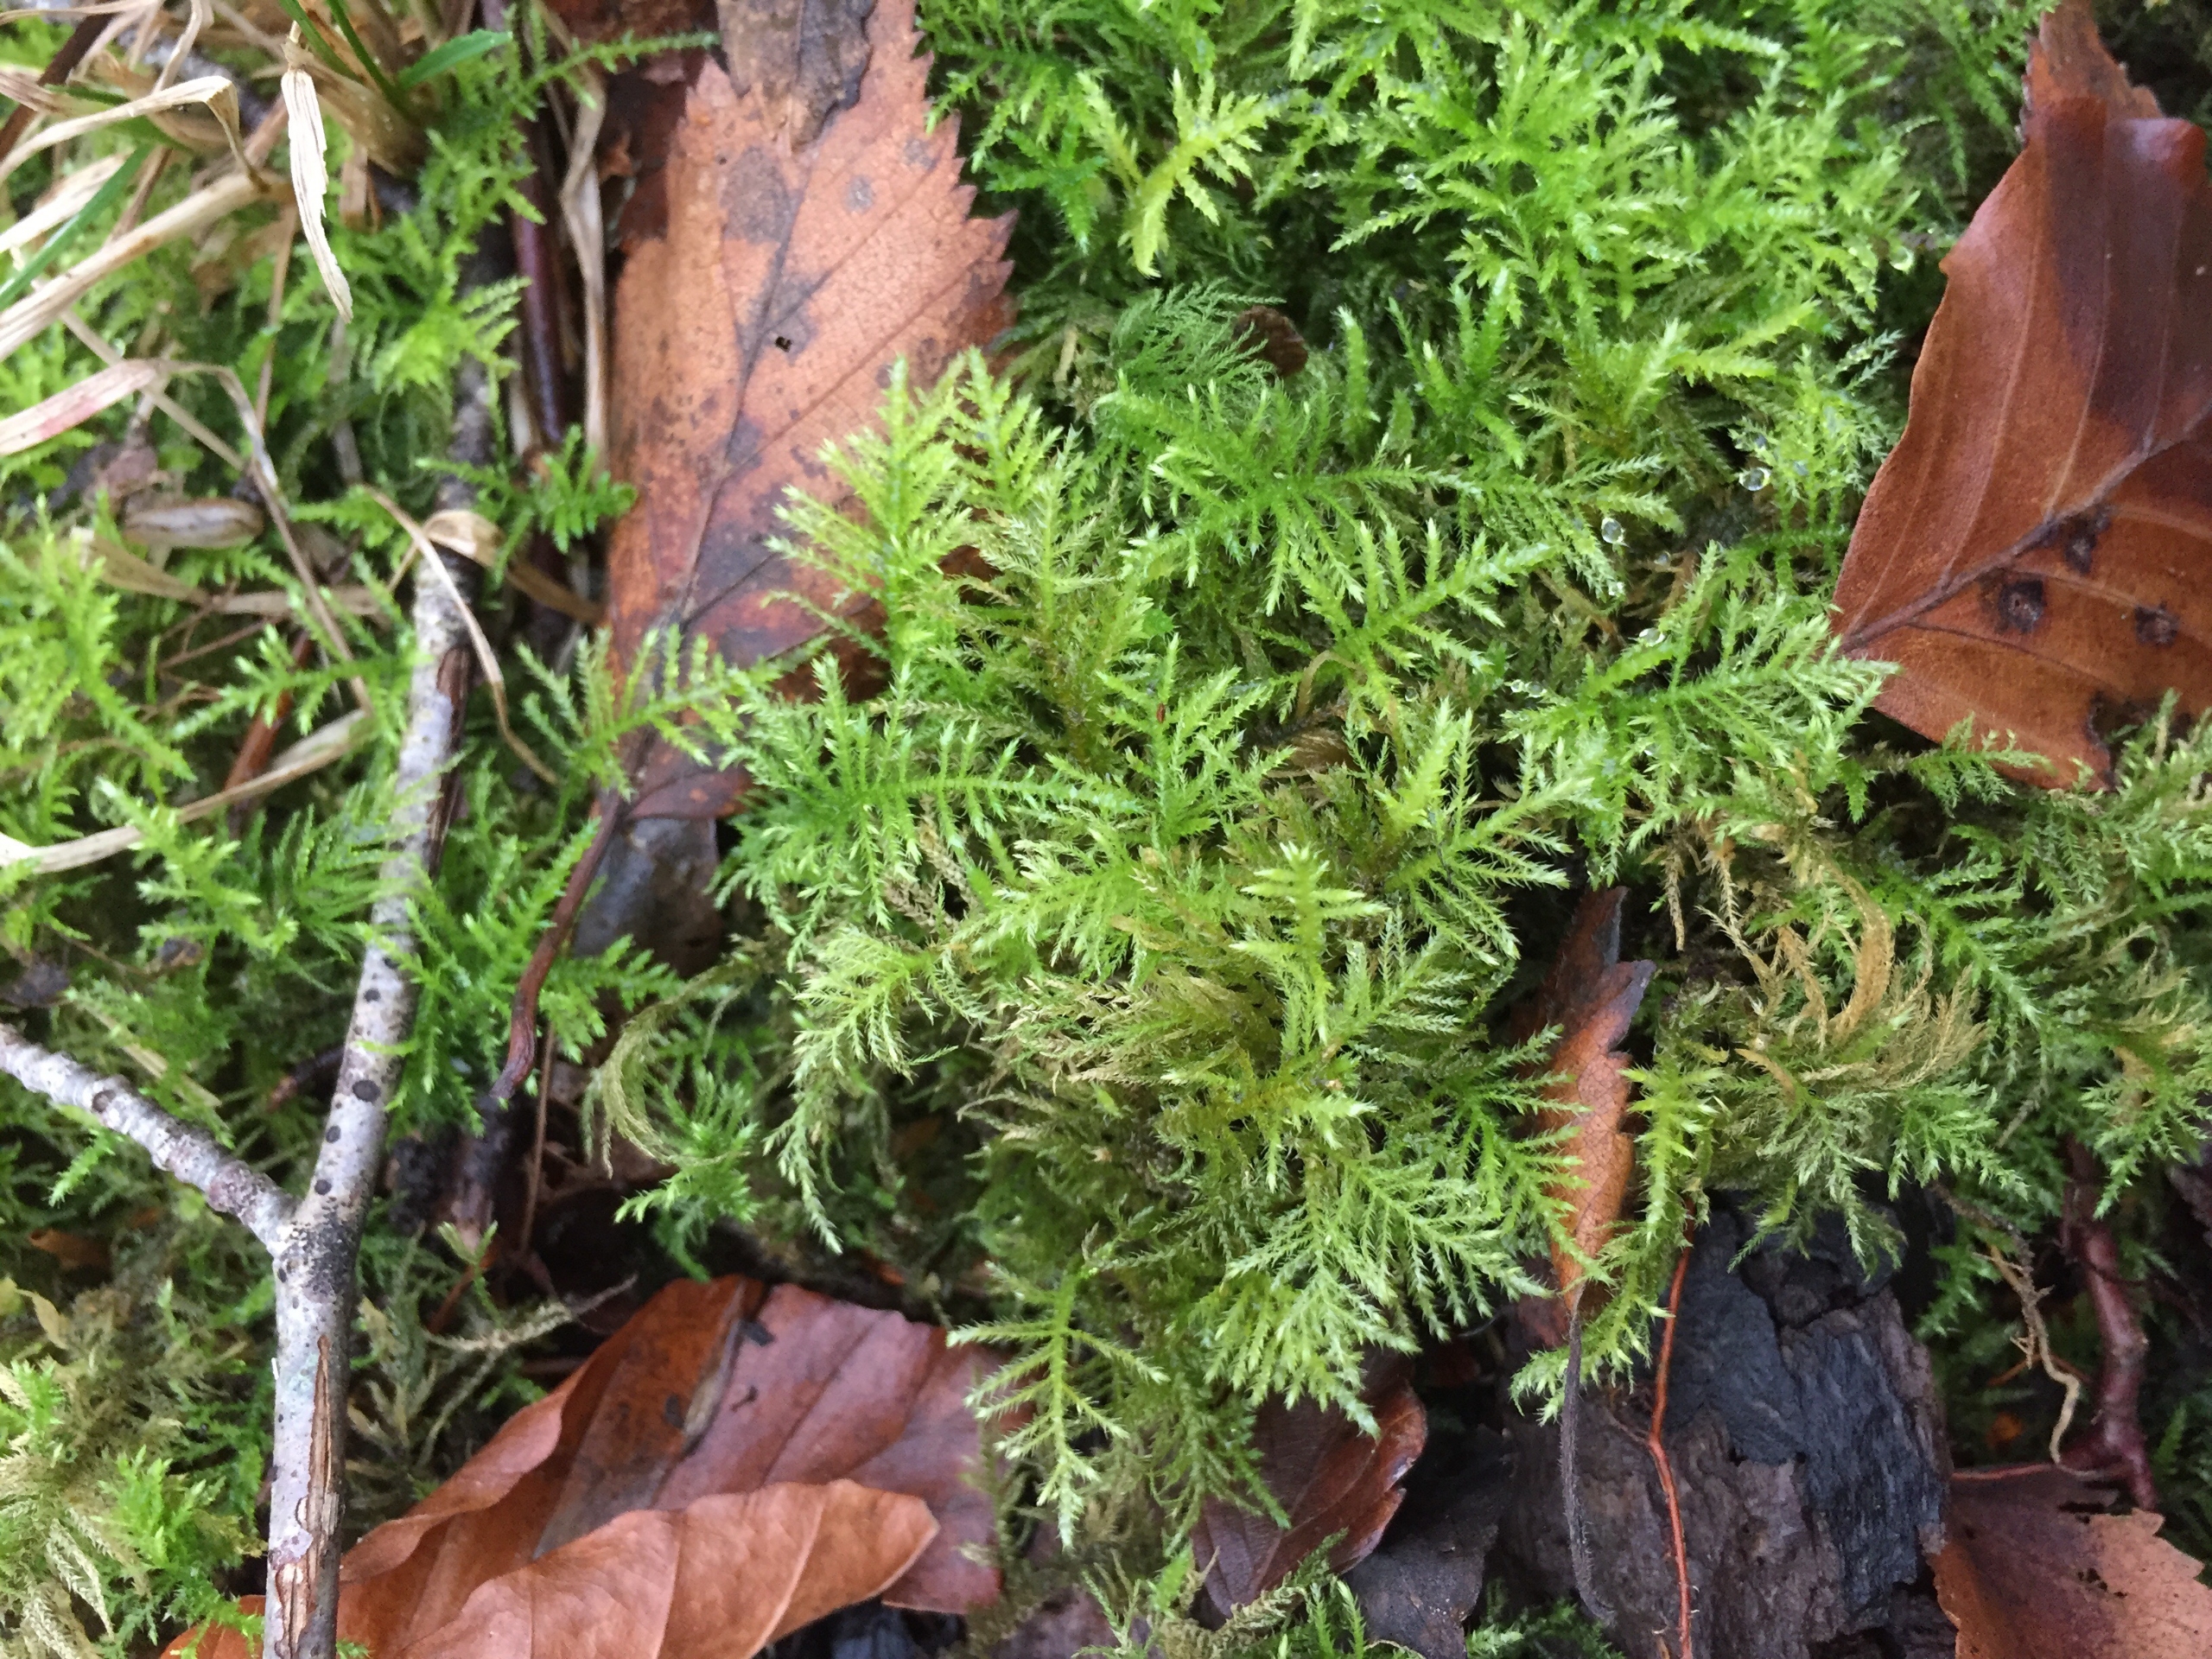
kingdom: Plantae
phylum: Bryophyta
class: Bryopsida
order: Hypnales
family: Brachytheciaceae
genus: Kindbergia
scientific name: Kindbergia praelonga
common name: Forskelligbladet vortetand
